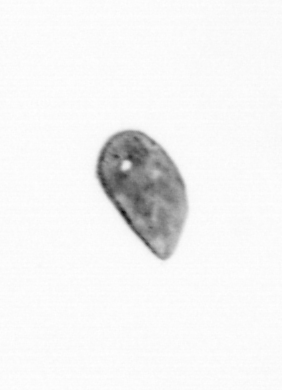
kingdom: Animalia
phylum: Arthropoda
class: Maxillopoda
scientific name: Maxillopoda
